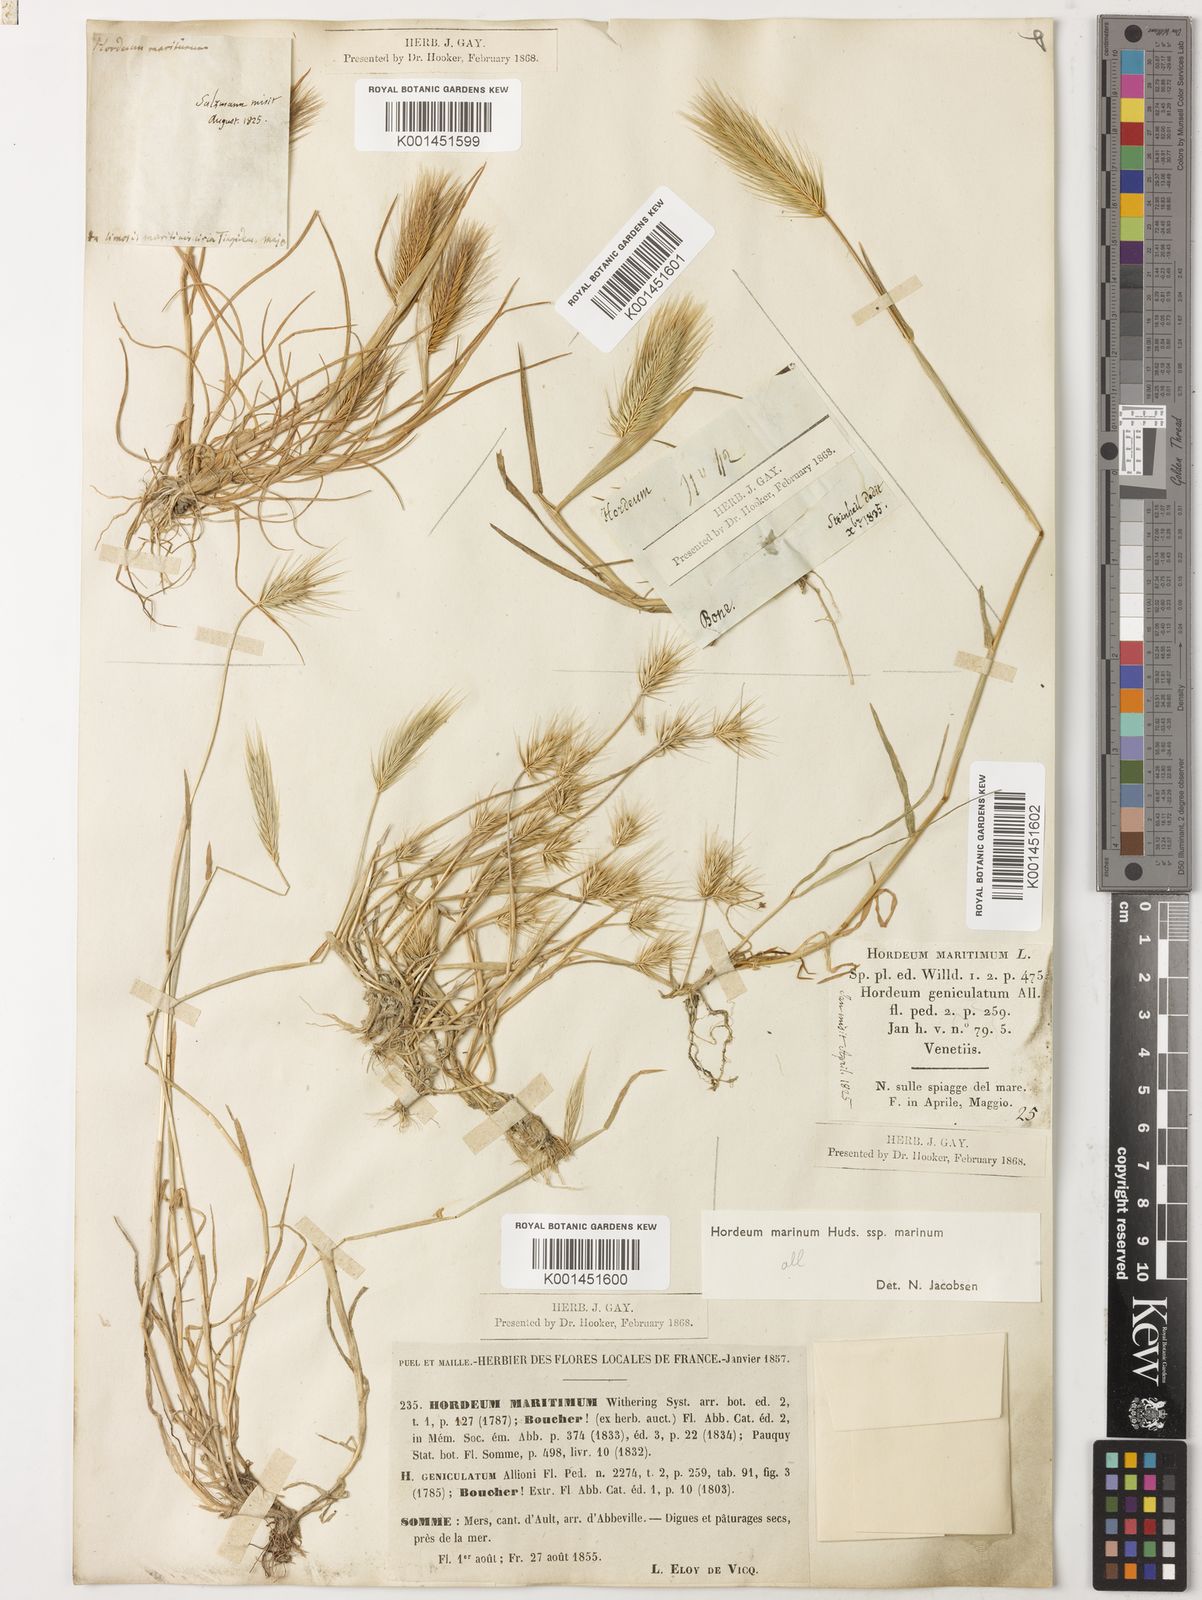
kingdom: Plantae
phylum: Tracheophyta
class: Liliopsida
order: Poales
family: Poaceae
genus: Hordeum
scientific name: Hordeum marinum
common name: Sea barley
